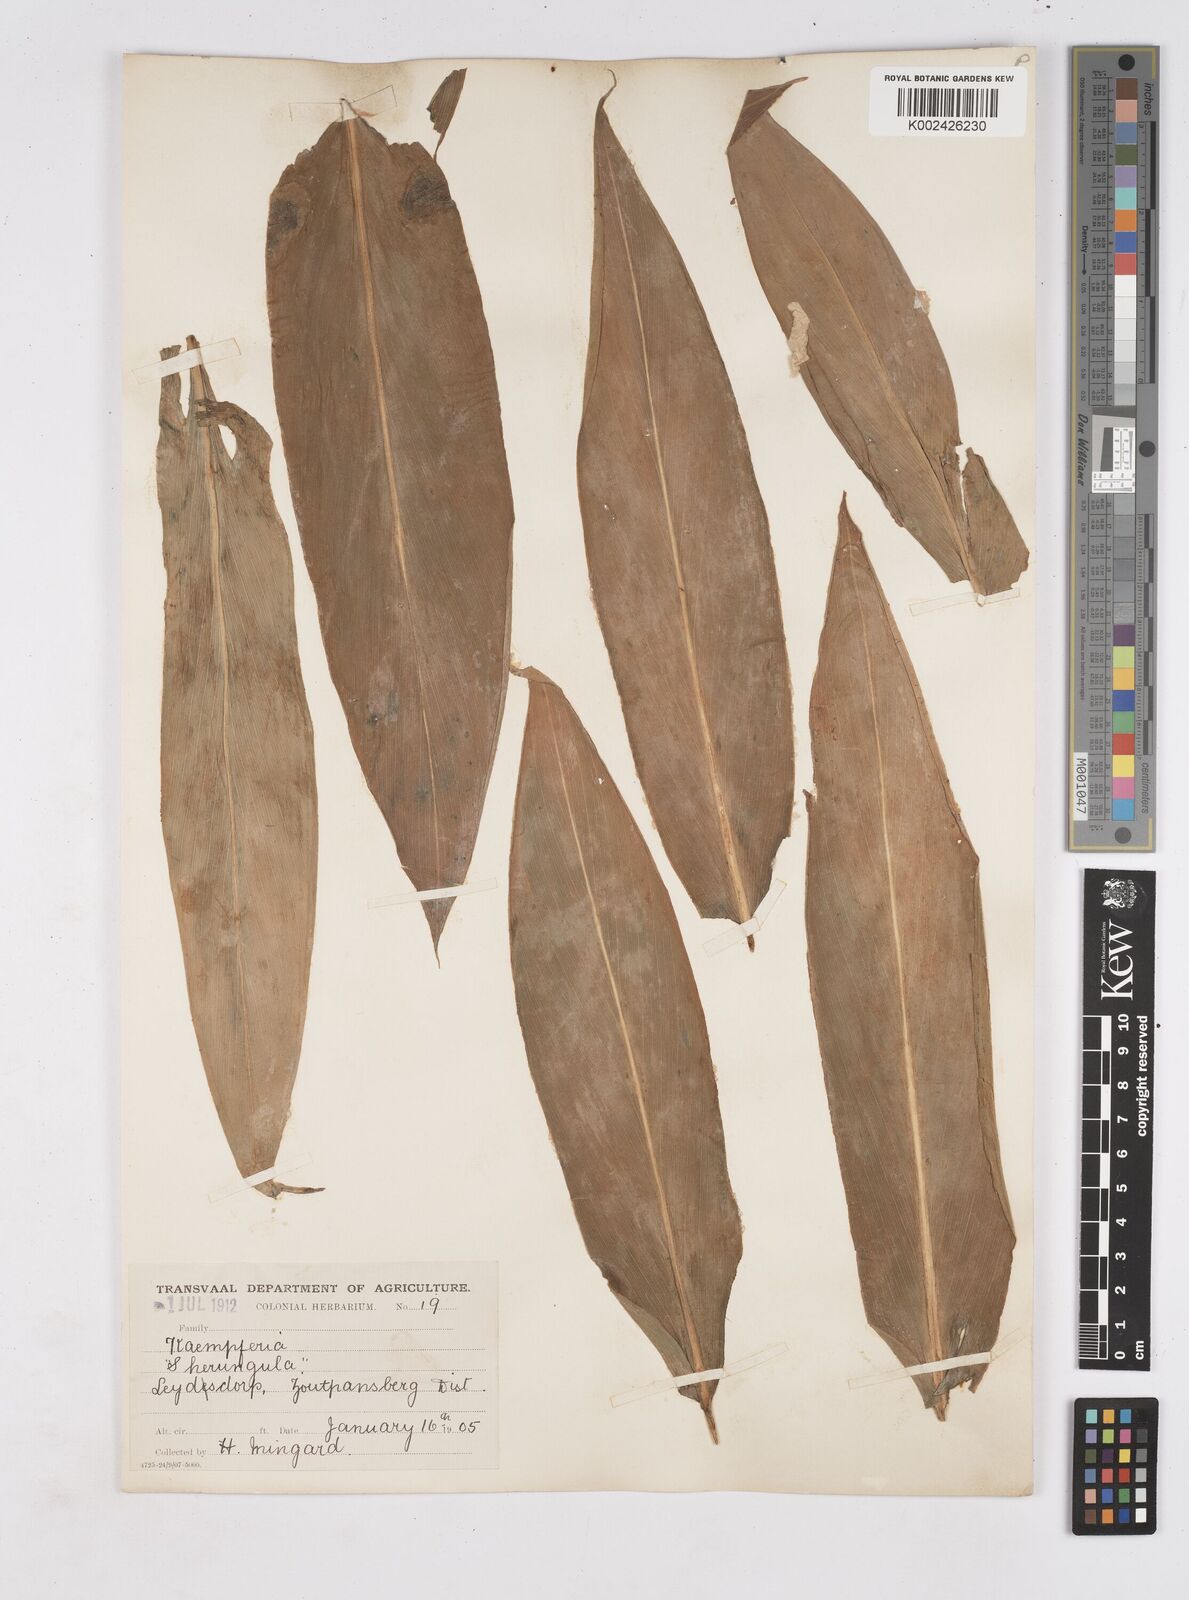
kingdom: Plantae
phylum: Tracheophyta
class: Liliopsida
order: Zingiberales
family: Zingiberaceae
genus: Siphonochilus
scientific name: Siphonochilus
